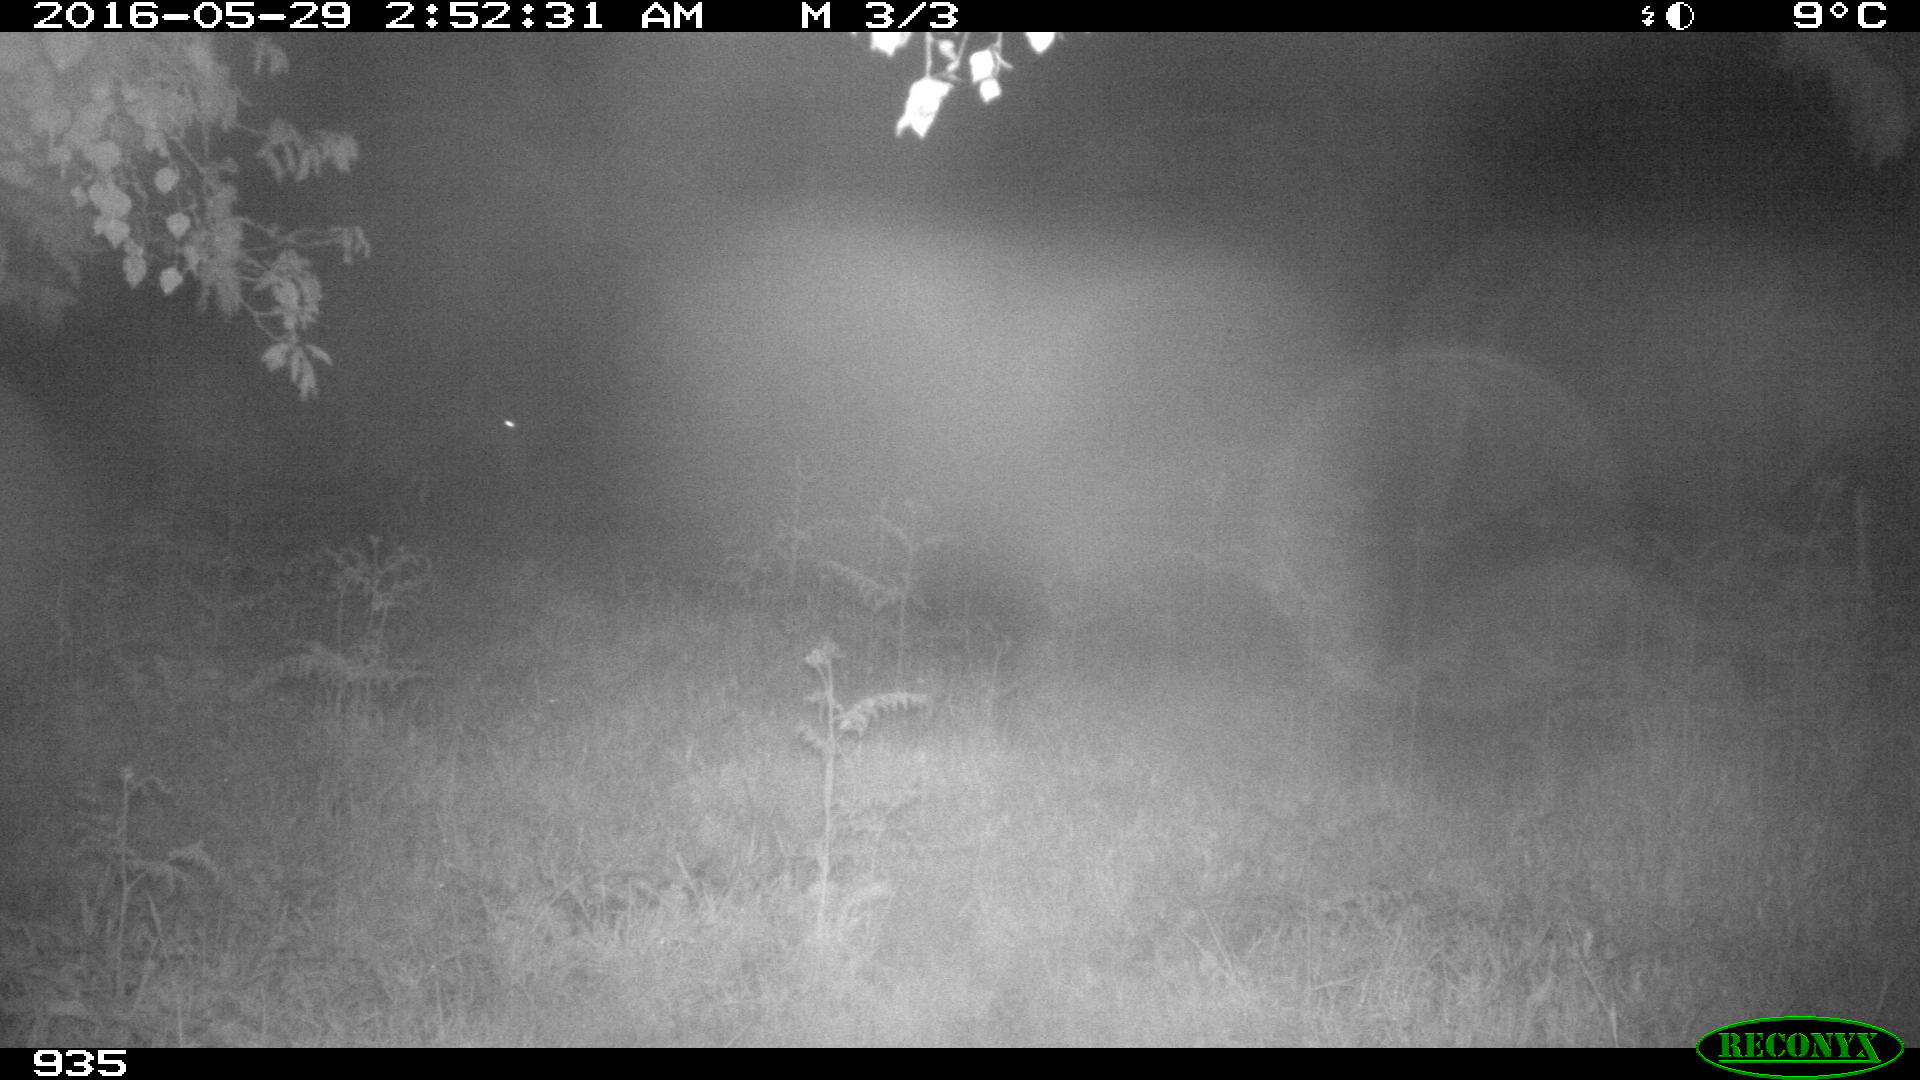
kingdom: Animalia
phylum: Chordata
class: Mammalia
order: Perissodactyla
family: Equidae
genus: Equus
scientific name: Equus caballus
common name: Horse
